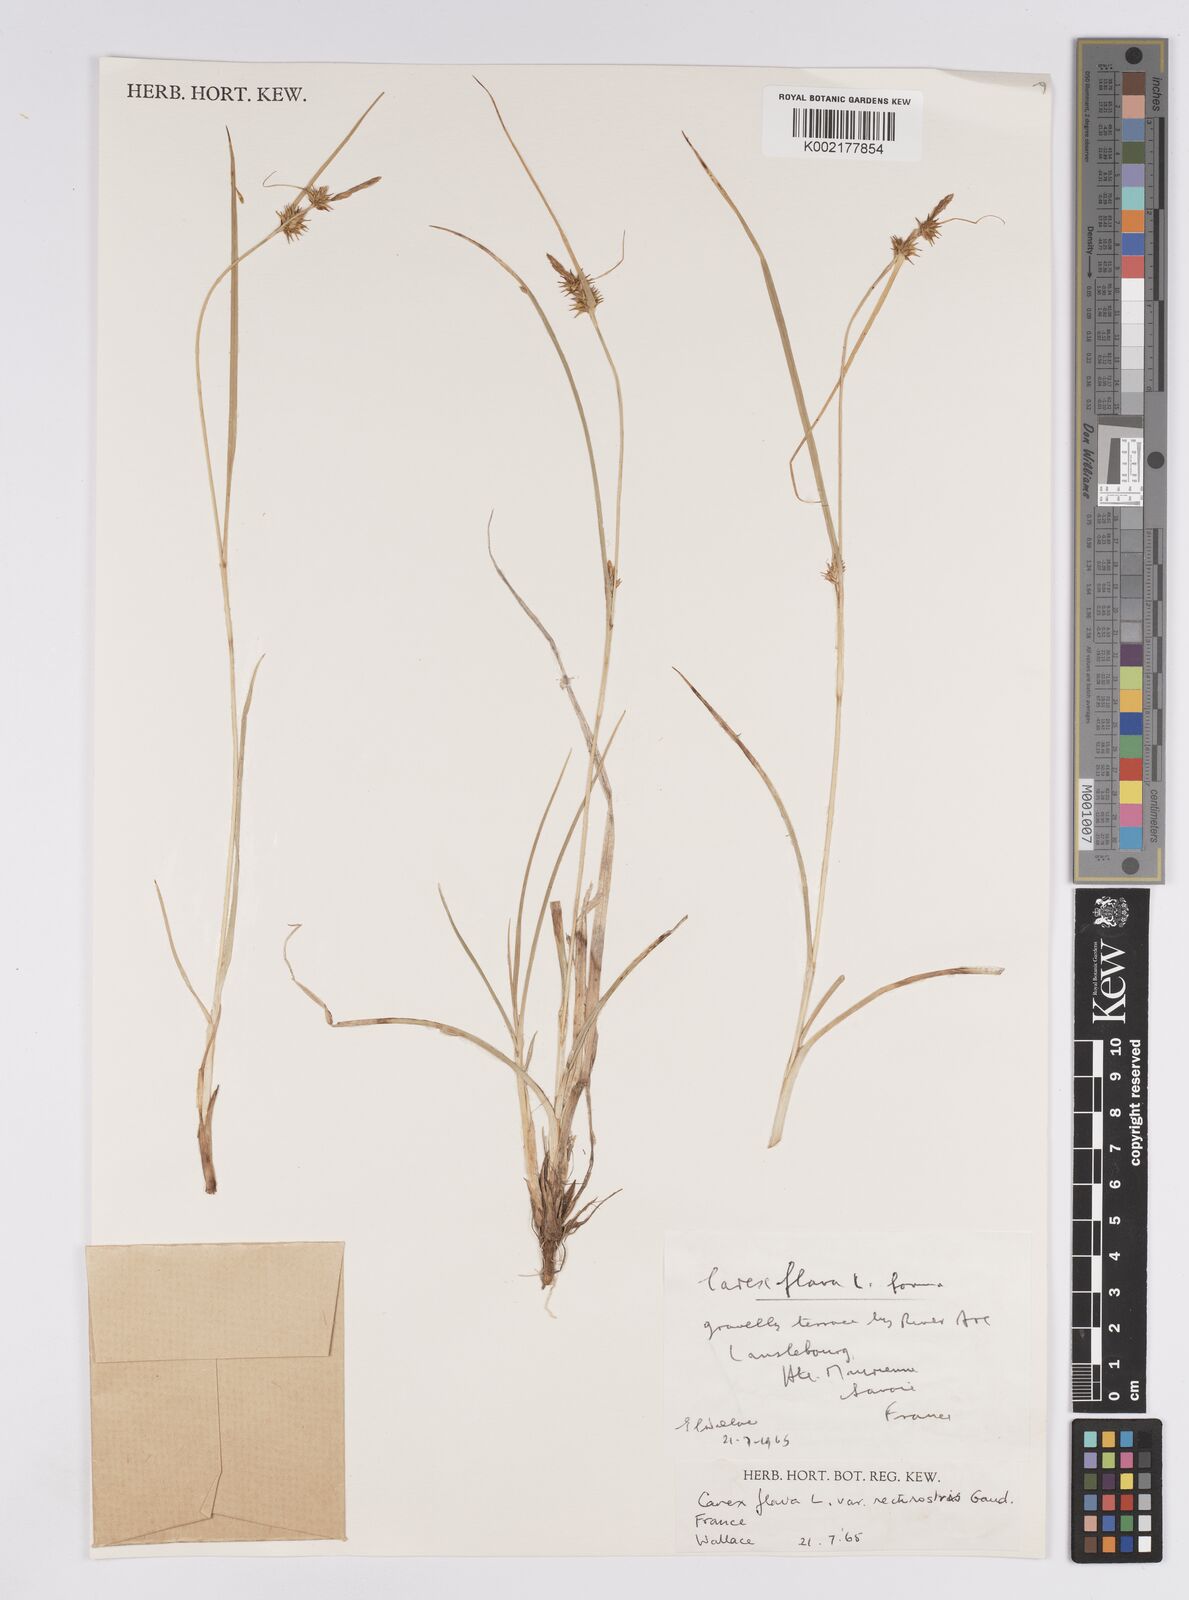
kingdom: Plantae
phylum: Tracheophyta
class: Liliopsida
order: Poales
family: Cyperaceae
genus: Carex
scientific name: Carex flava
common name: Large yellow-sedge
